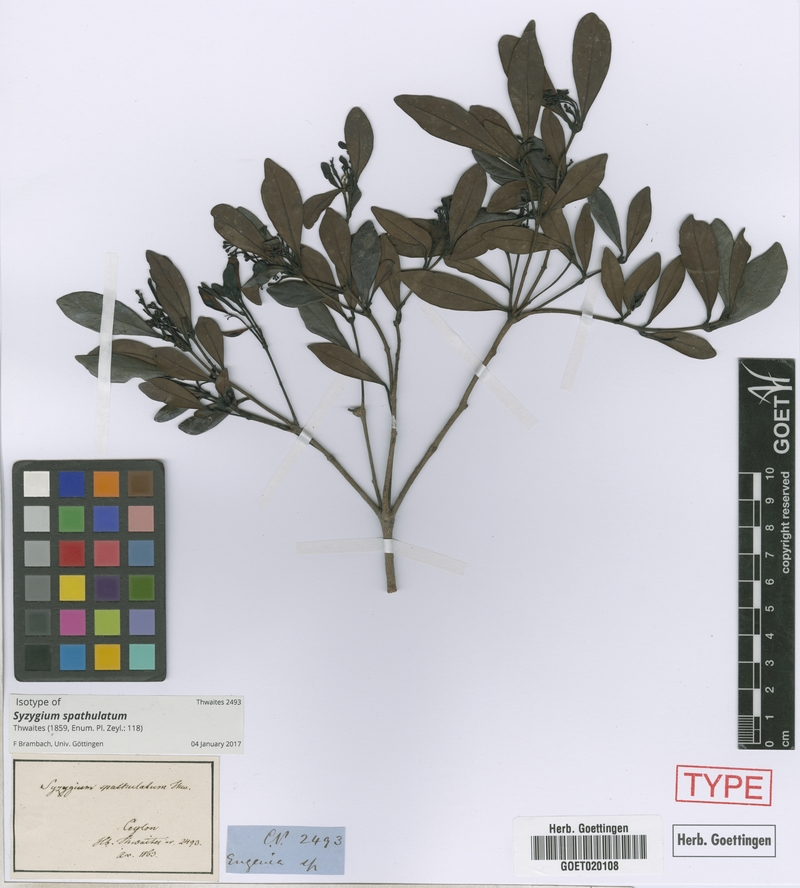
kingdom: Plantae
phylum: Tracheophyta
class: Magnoliopsida
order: Myrtales
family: Myrtaceae
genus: Syzygium
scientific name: Syzygium spathulatum
